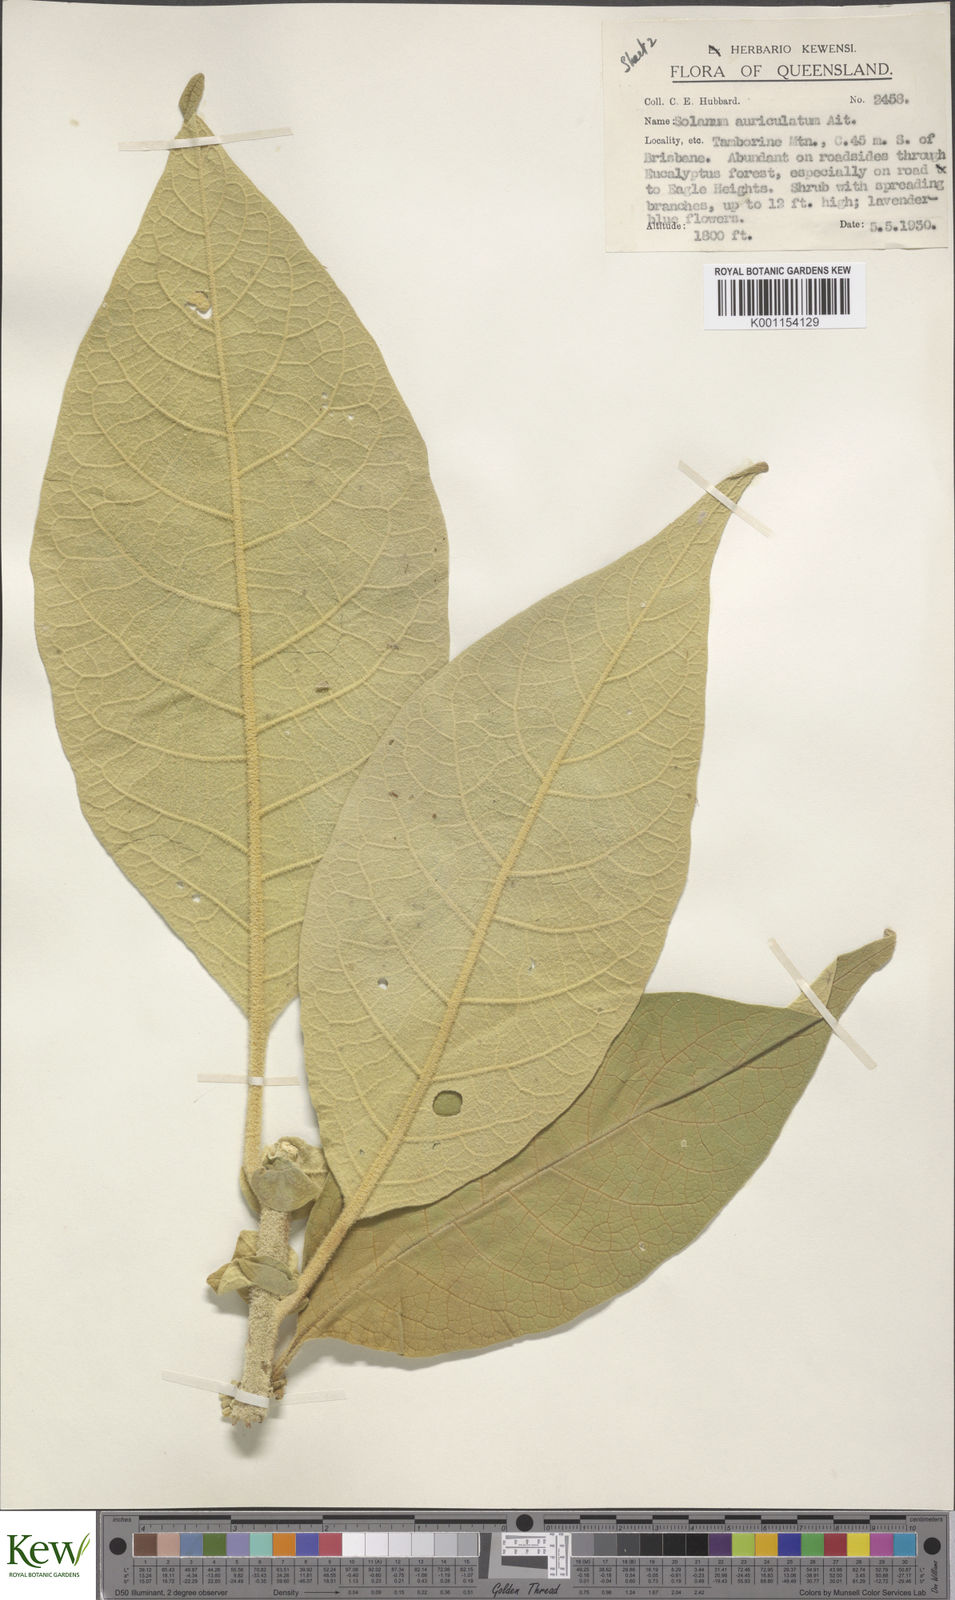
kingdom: Plantae
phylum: Tracheophyta
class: Magnoliopsida
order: Solanales
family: Solanaceae
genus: Solanum
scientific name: Solanum mauritianum
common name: Earleaf nightshade
